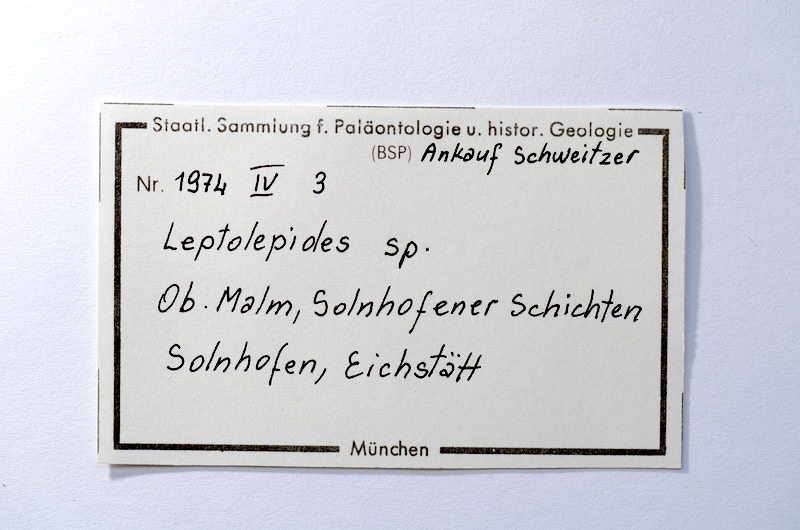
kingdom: Animalia
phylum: Chordata
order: Salmoniformes
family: Orthogonikleithridae
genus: Leptolepides
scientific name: Leptolepides sprattiformis
